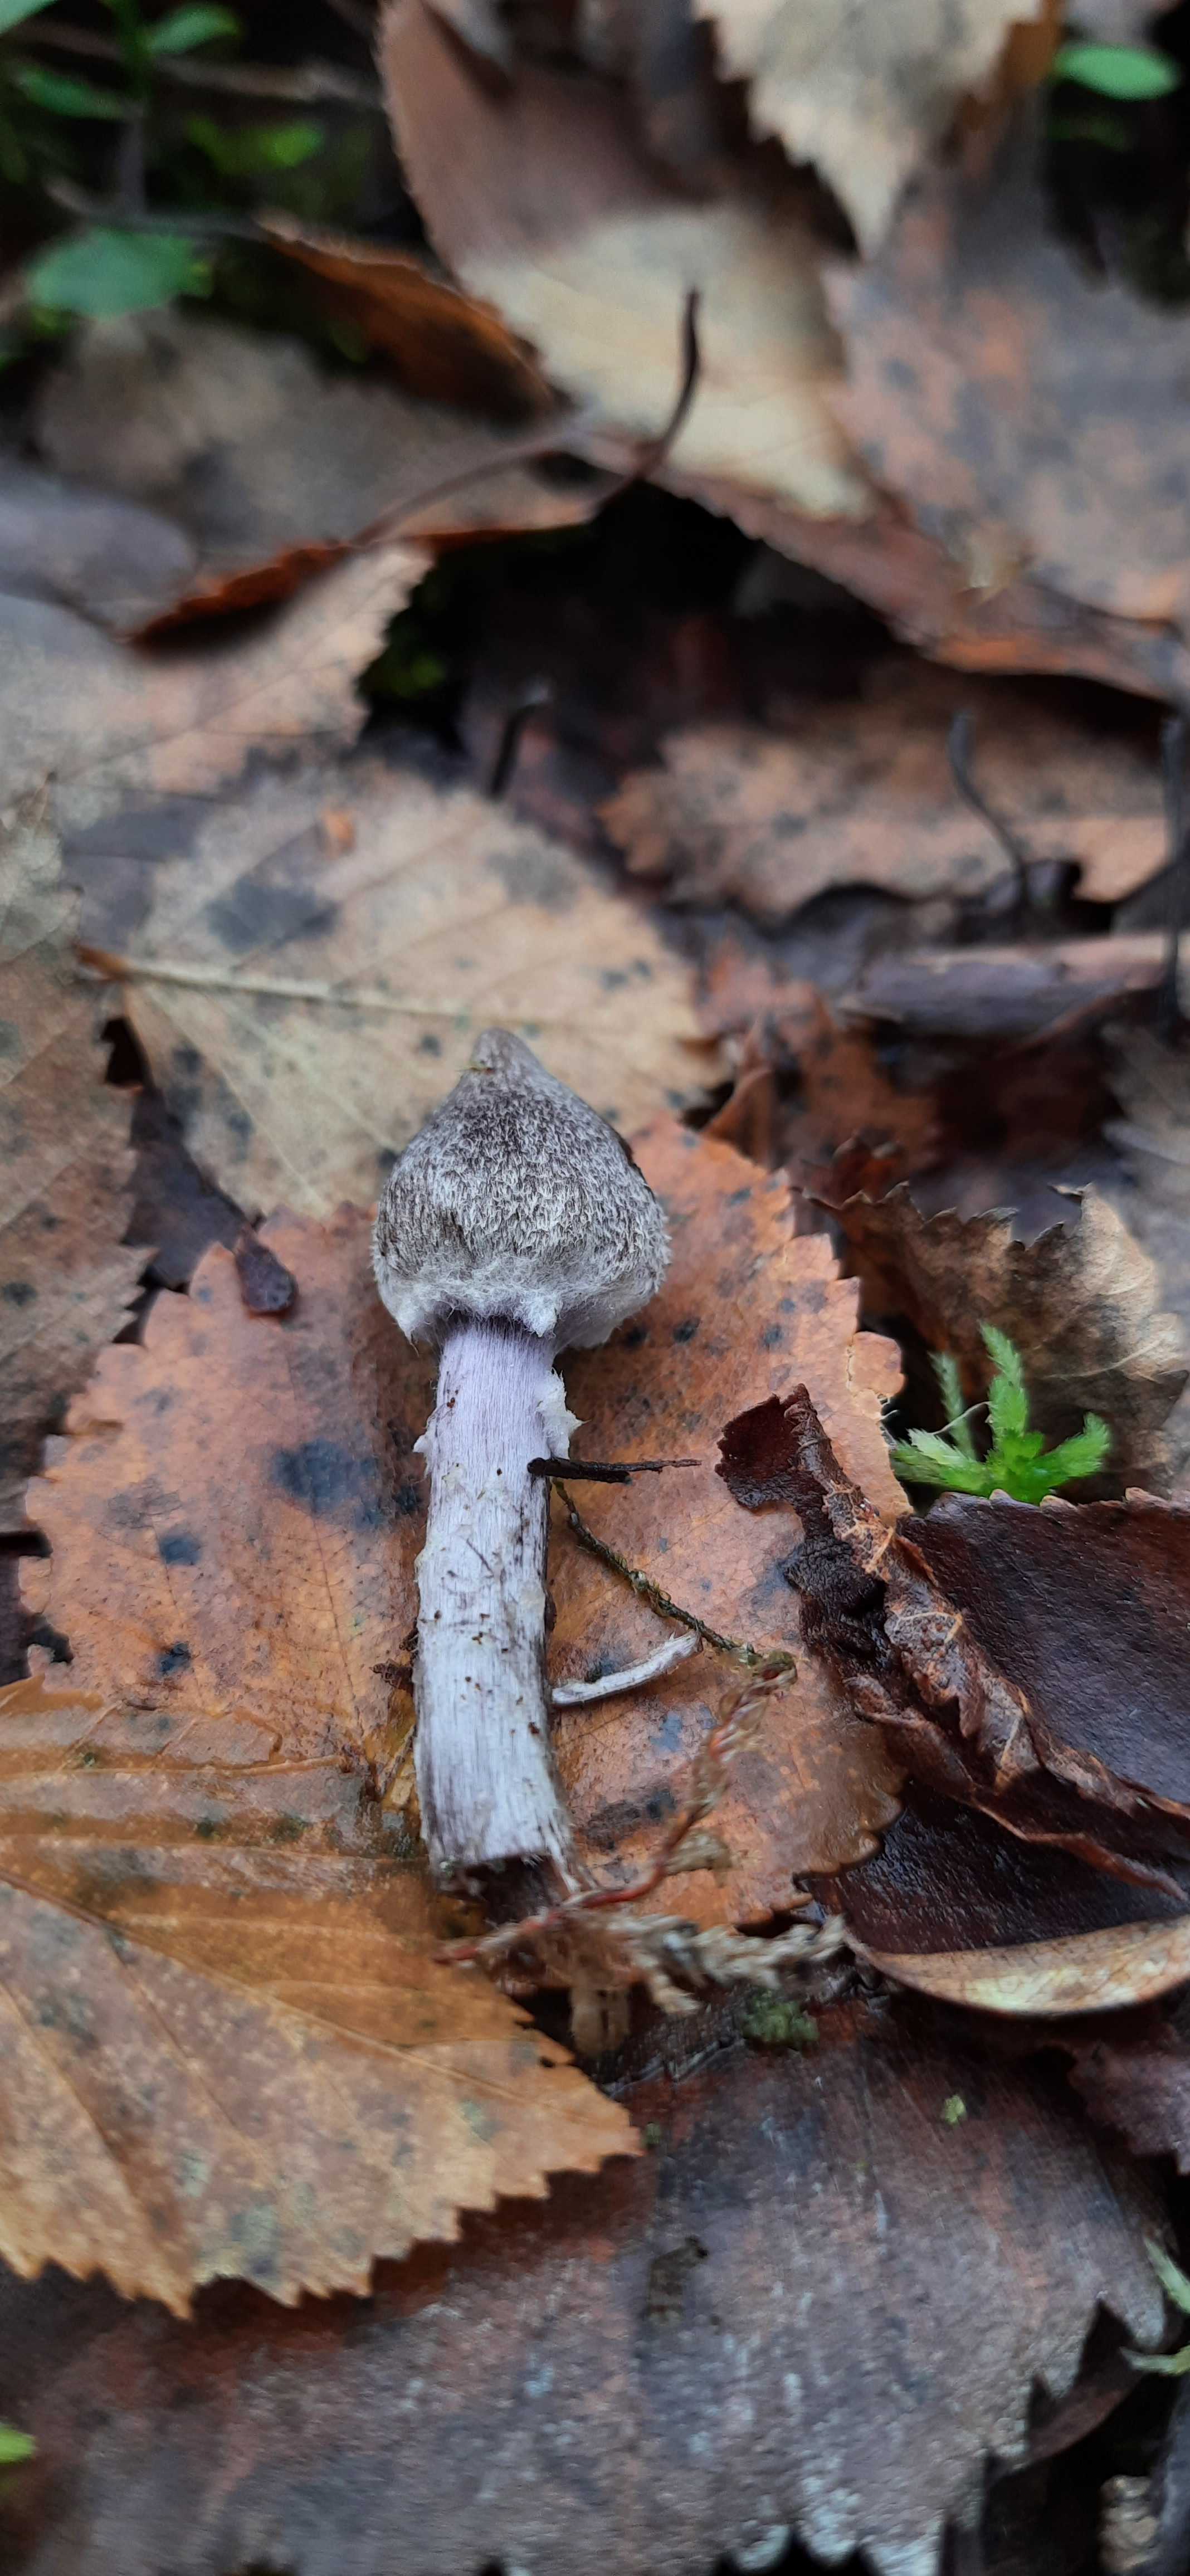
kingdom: Fungi
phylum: Basidiomycota
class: Agaricomycetes
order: Agaricales
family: Cortinariaceae
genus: Cortinarius
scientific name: Cortinarius flexipes
